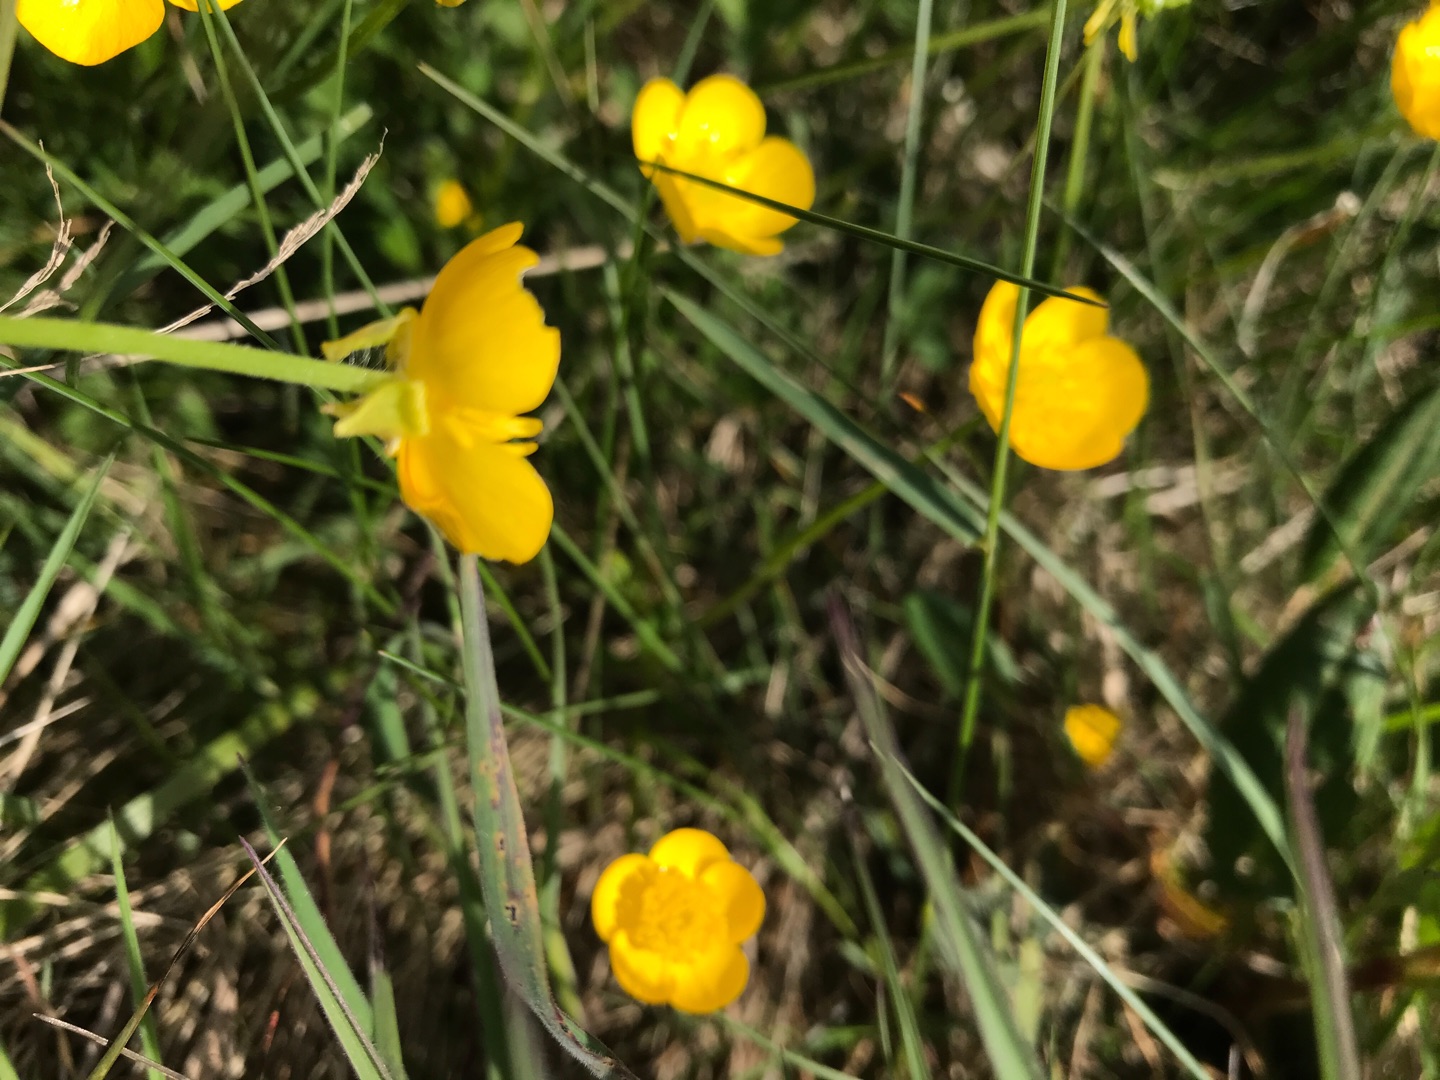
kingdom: Plantae
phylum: Tracheophyta
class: Magnoliopsida
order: Ranunculales
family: Ranunculaceae
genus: Ranunculus
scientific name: Ranunculus bulbosus
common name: Knold-ranunkel
